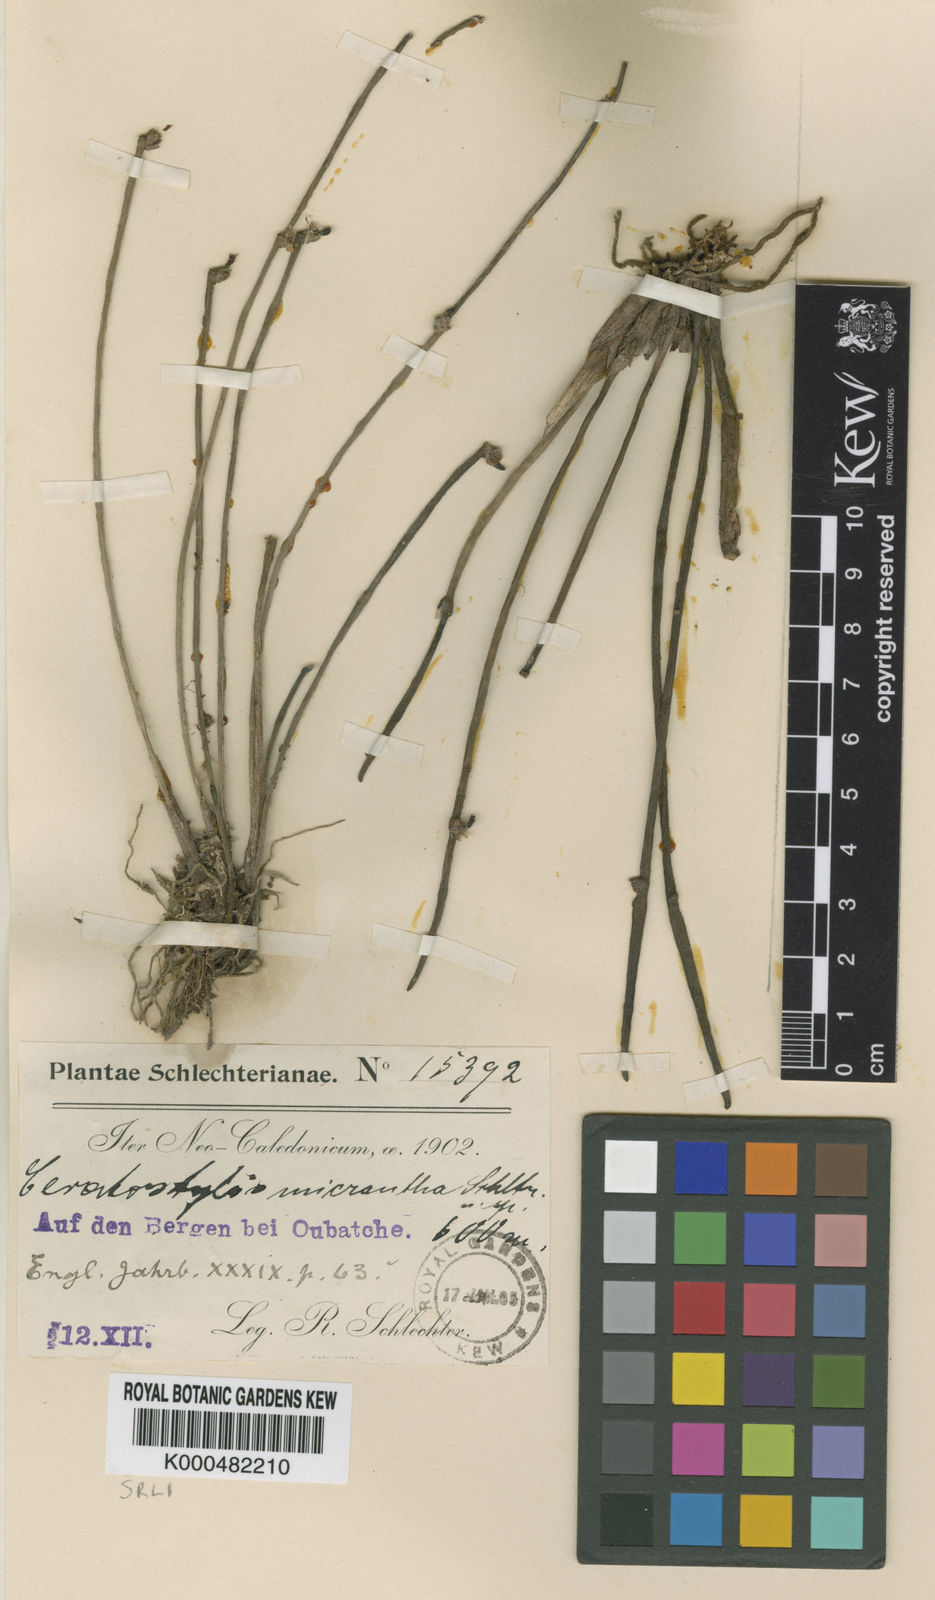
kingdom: Plantae
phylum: Tracheophyta
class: Liliopsida
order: Asparagales
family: Orchidaceae
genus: Ceratostylis
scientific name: Ceratostylis
